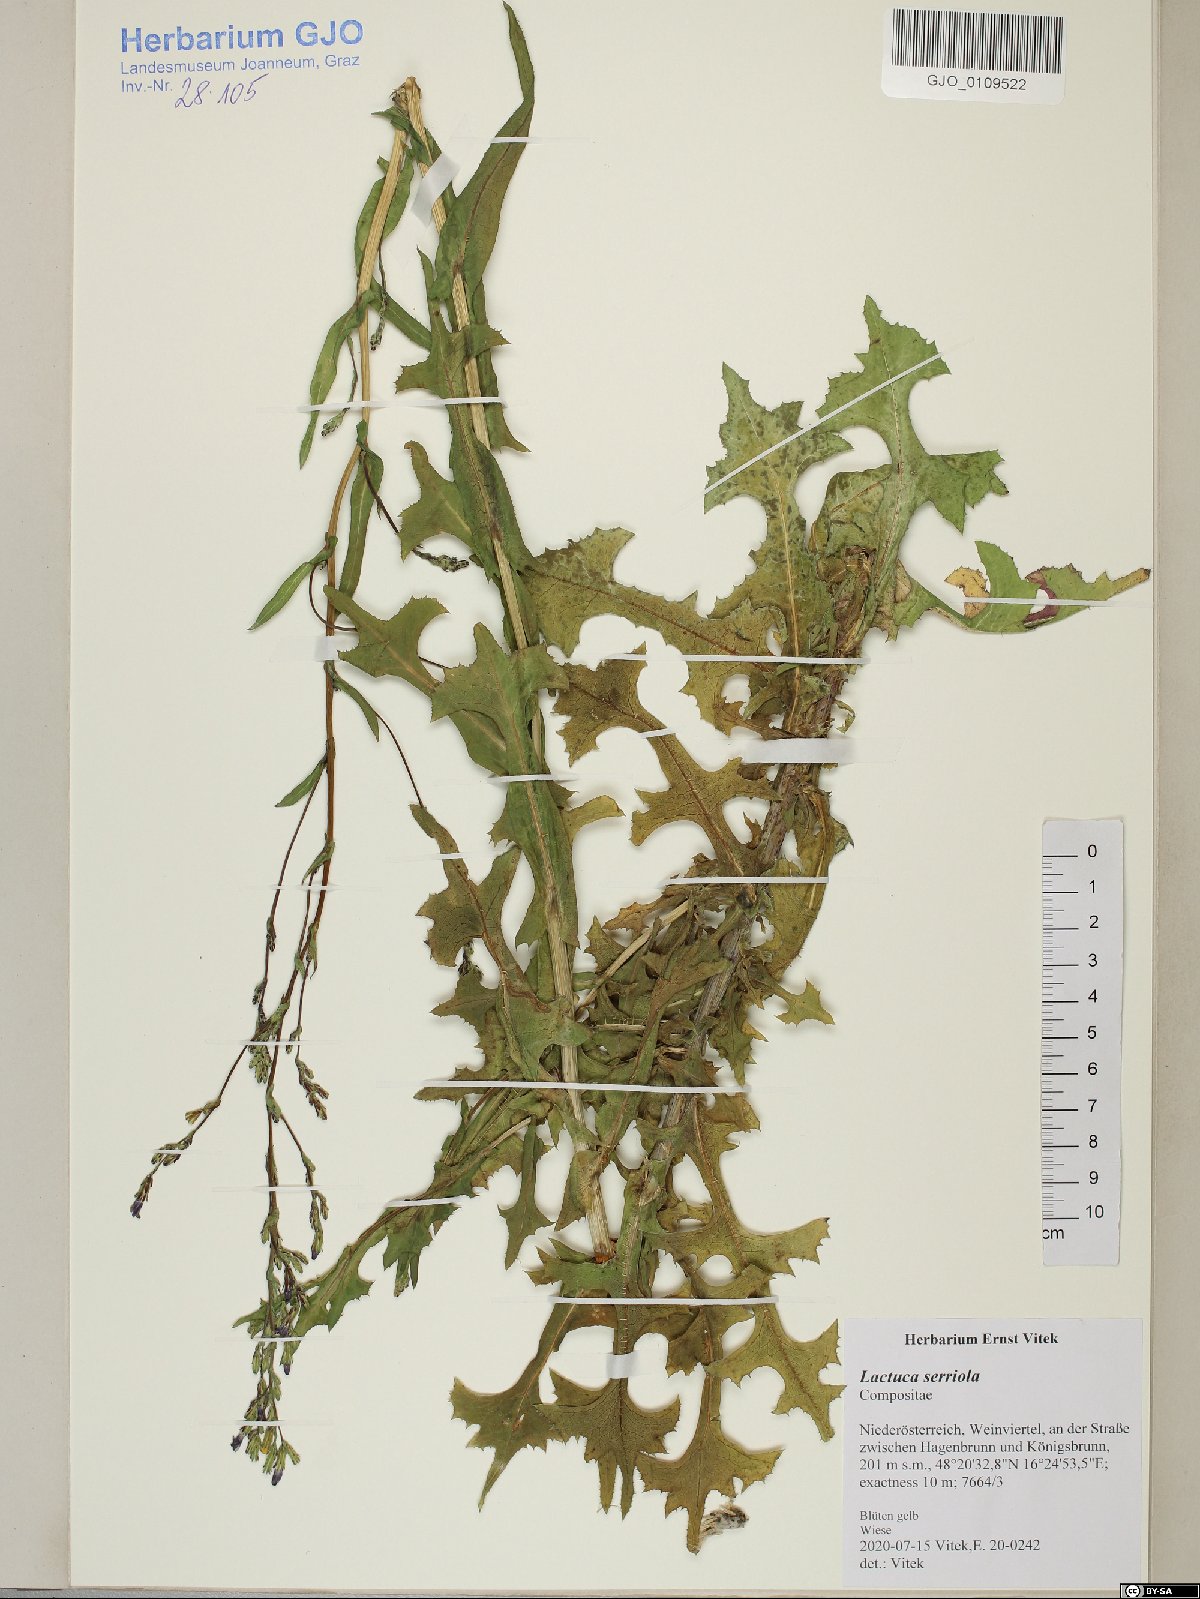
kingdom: Plantae
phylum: Tracheophyta
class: Magnoliopsida
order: Asterales
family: Asteraceae
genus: Lactuca
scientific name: Lactuca serriola
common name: Prickly lettuce
